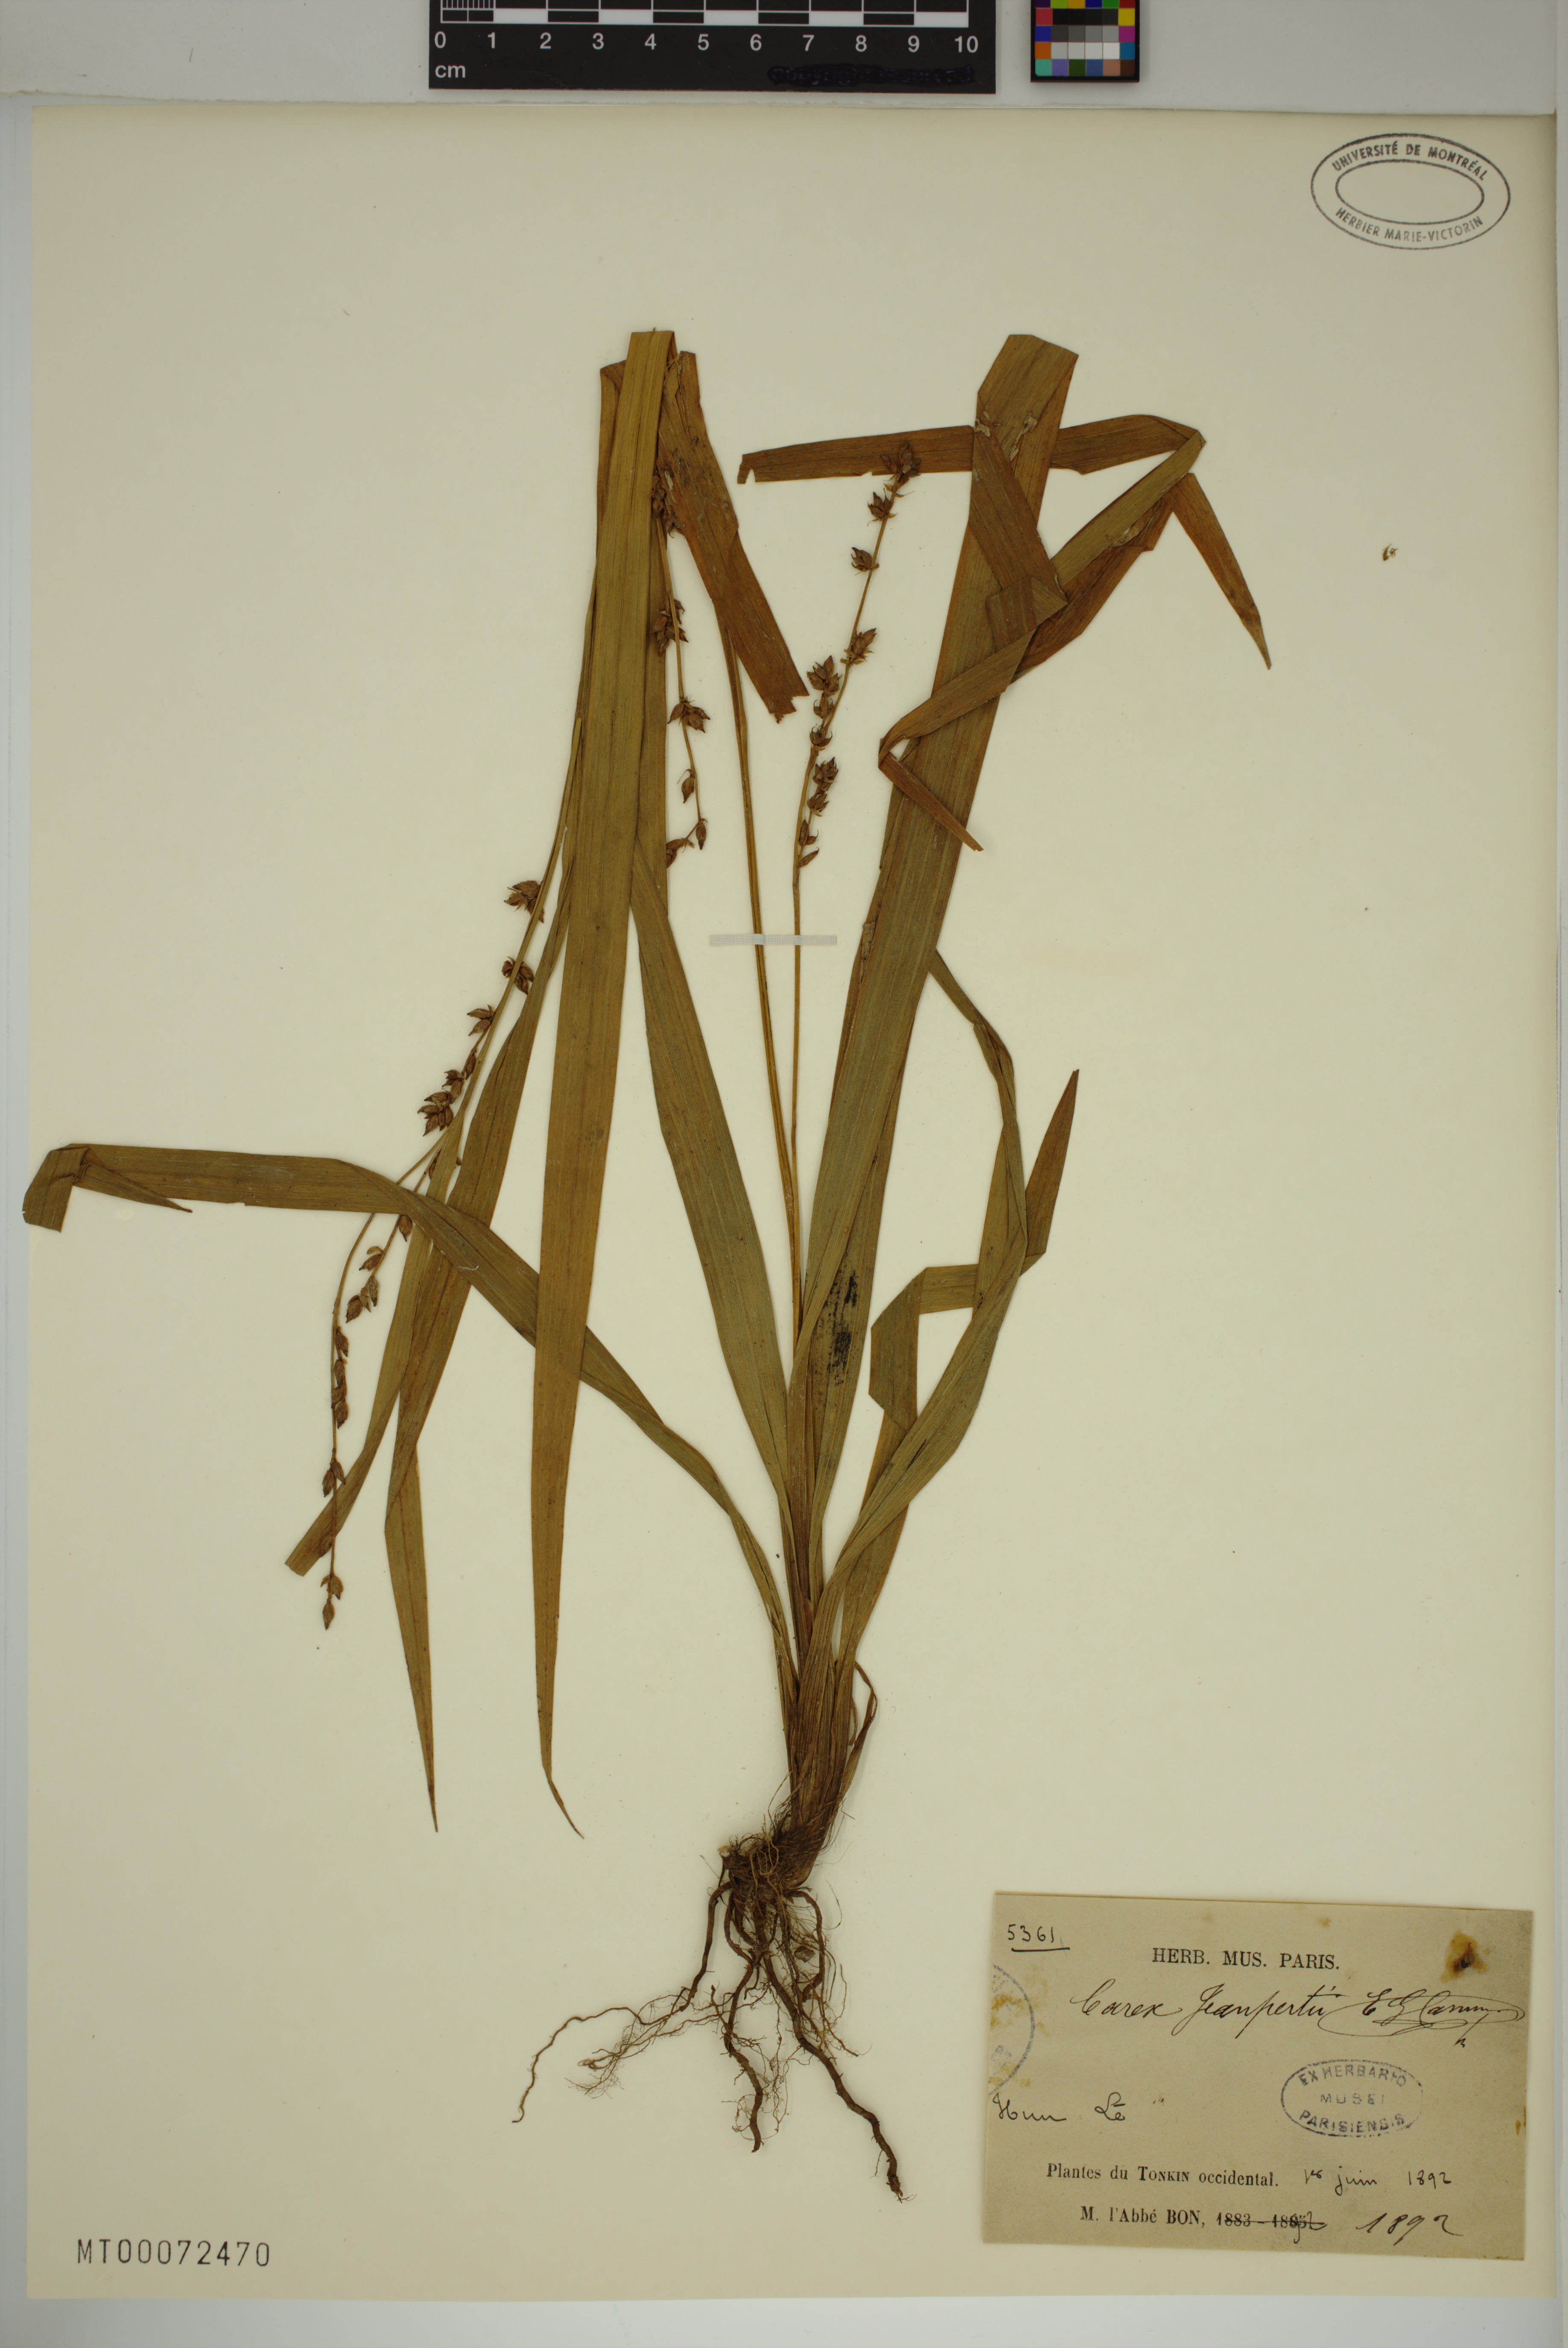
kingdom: Plantae
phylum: Tracheophyta
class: Liliopsida
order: Poales
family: Cyperaceae
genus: Carex
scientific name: Carex jeanpertii
